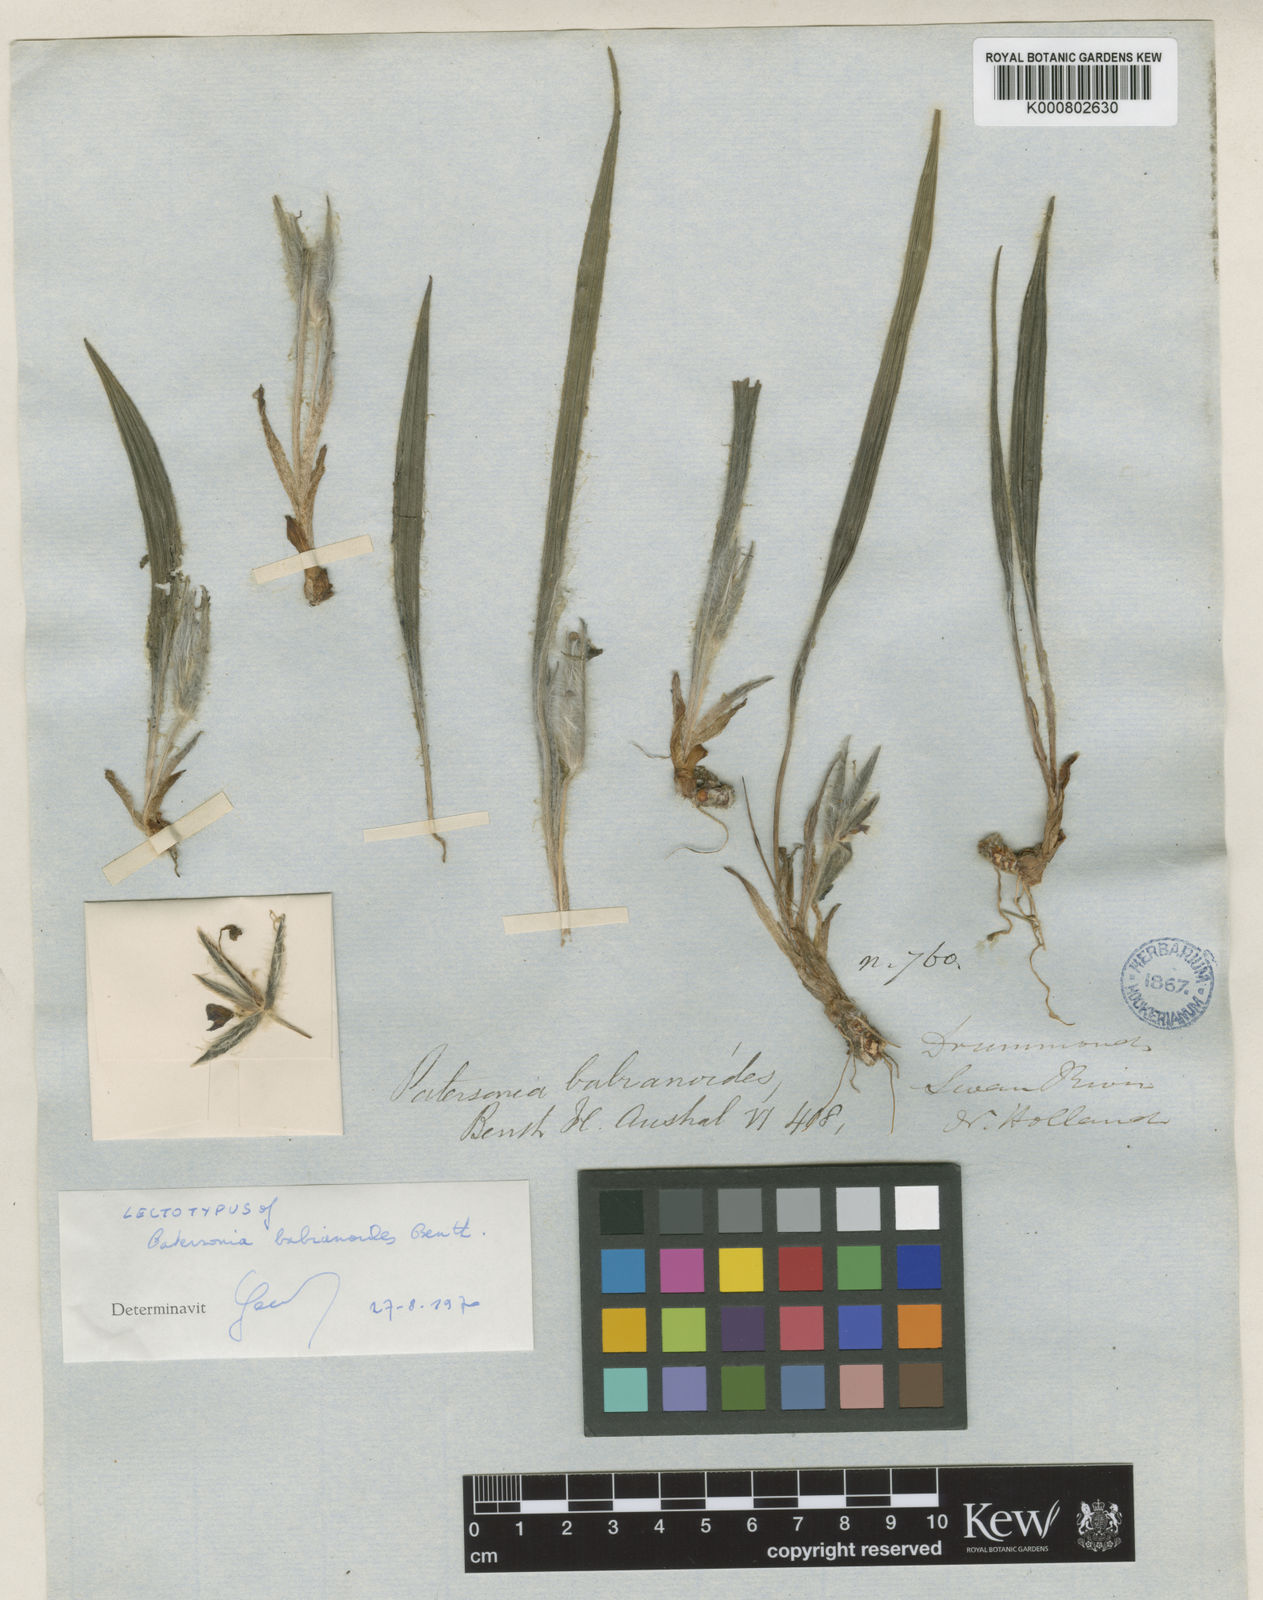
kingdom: Plantae
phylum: Tracheophyta
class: Liliopsida
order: Asparagales
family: Iridaceae
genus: Patersonia
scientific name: Patersonia babianoides
